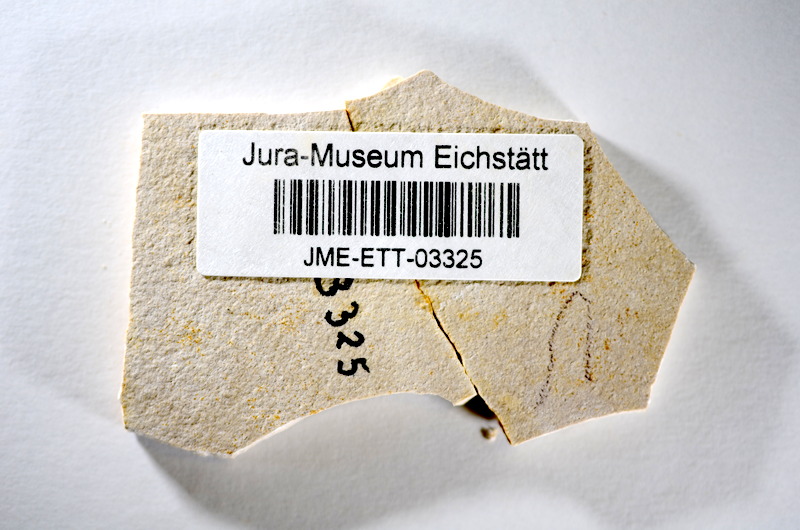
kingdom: Animalia
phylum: Chordata
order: Salmoniformes
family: Orthogonikleithridae
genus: Orthogonikleithrus
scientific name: Orthogonikleithrus hoelli
